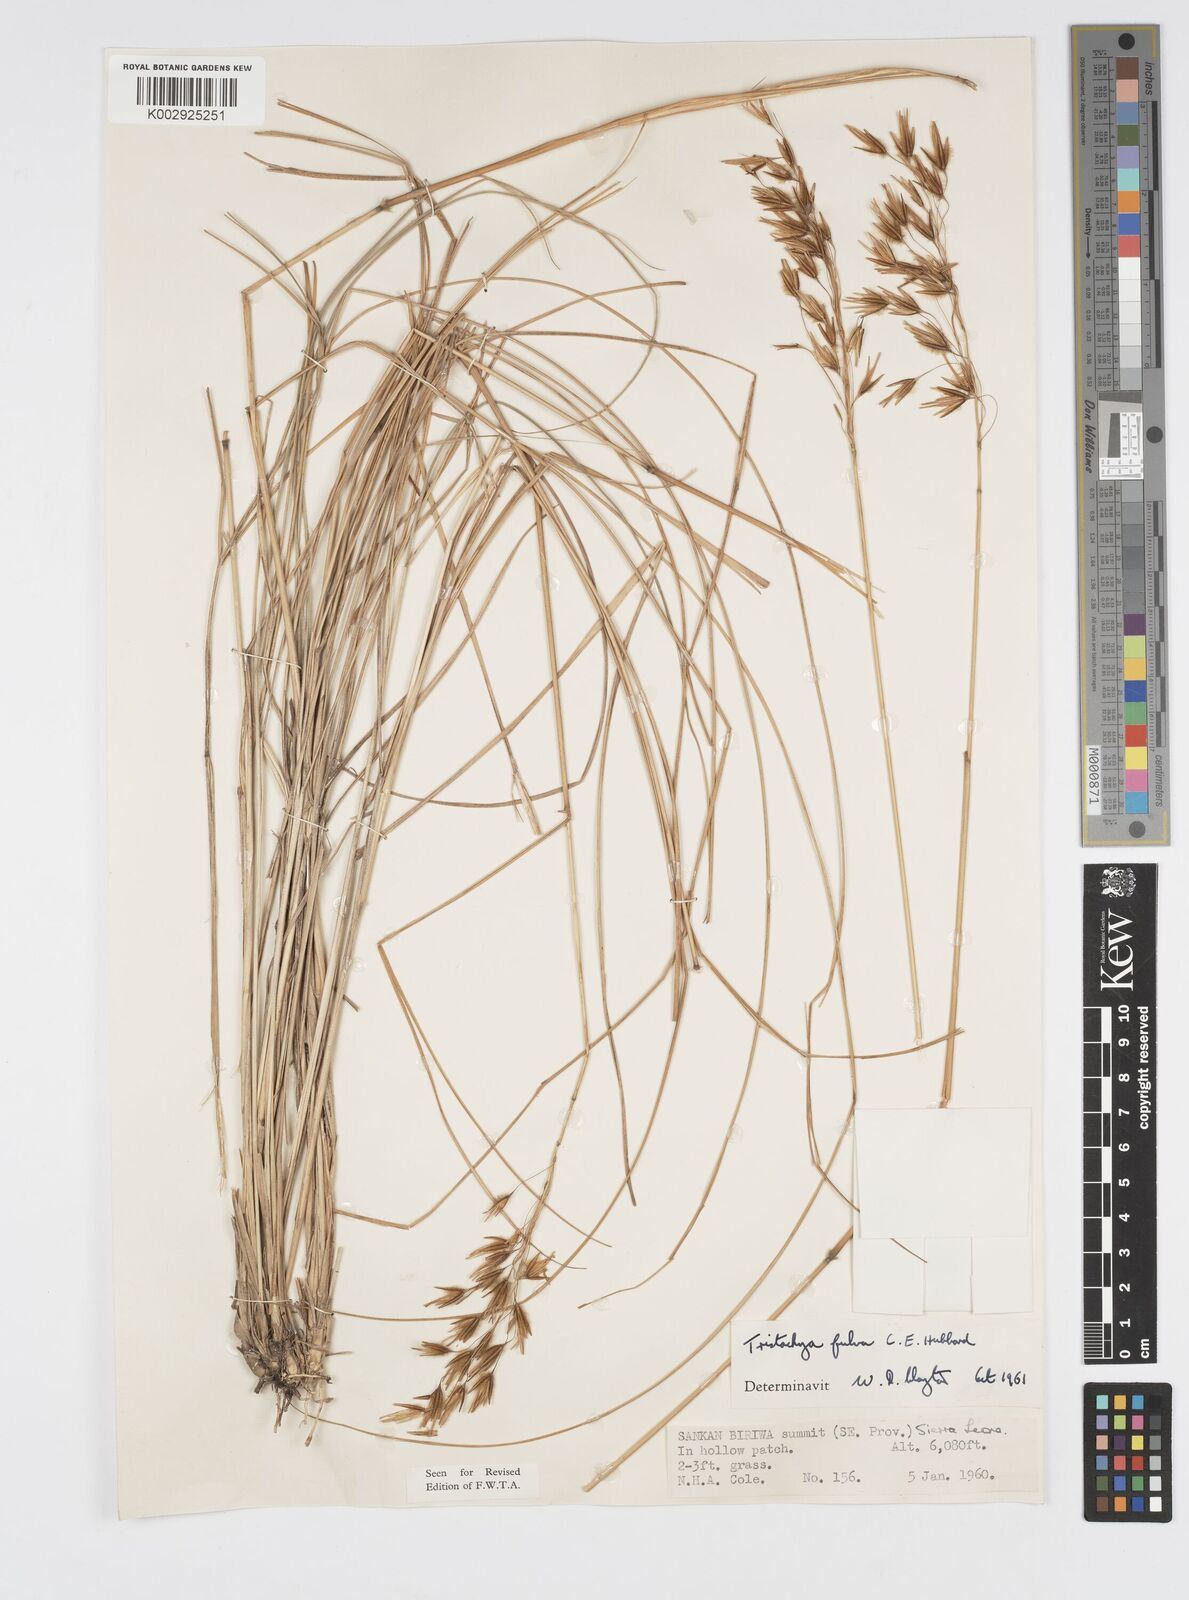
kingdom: Plantae
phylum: Tracheophyta
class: Liliopsida
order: Poales
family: Poaceae
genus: Loudetiopsis
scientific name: Loudetiopsis chrysothrix
